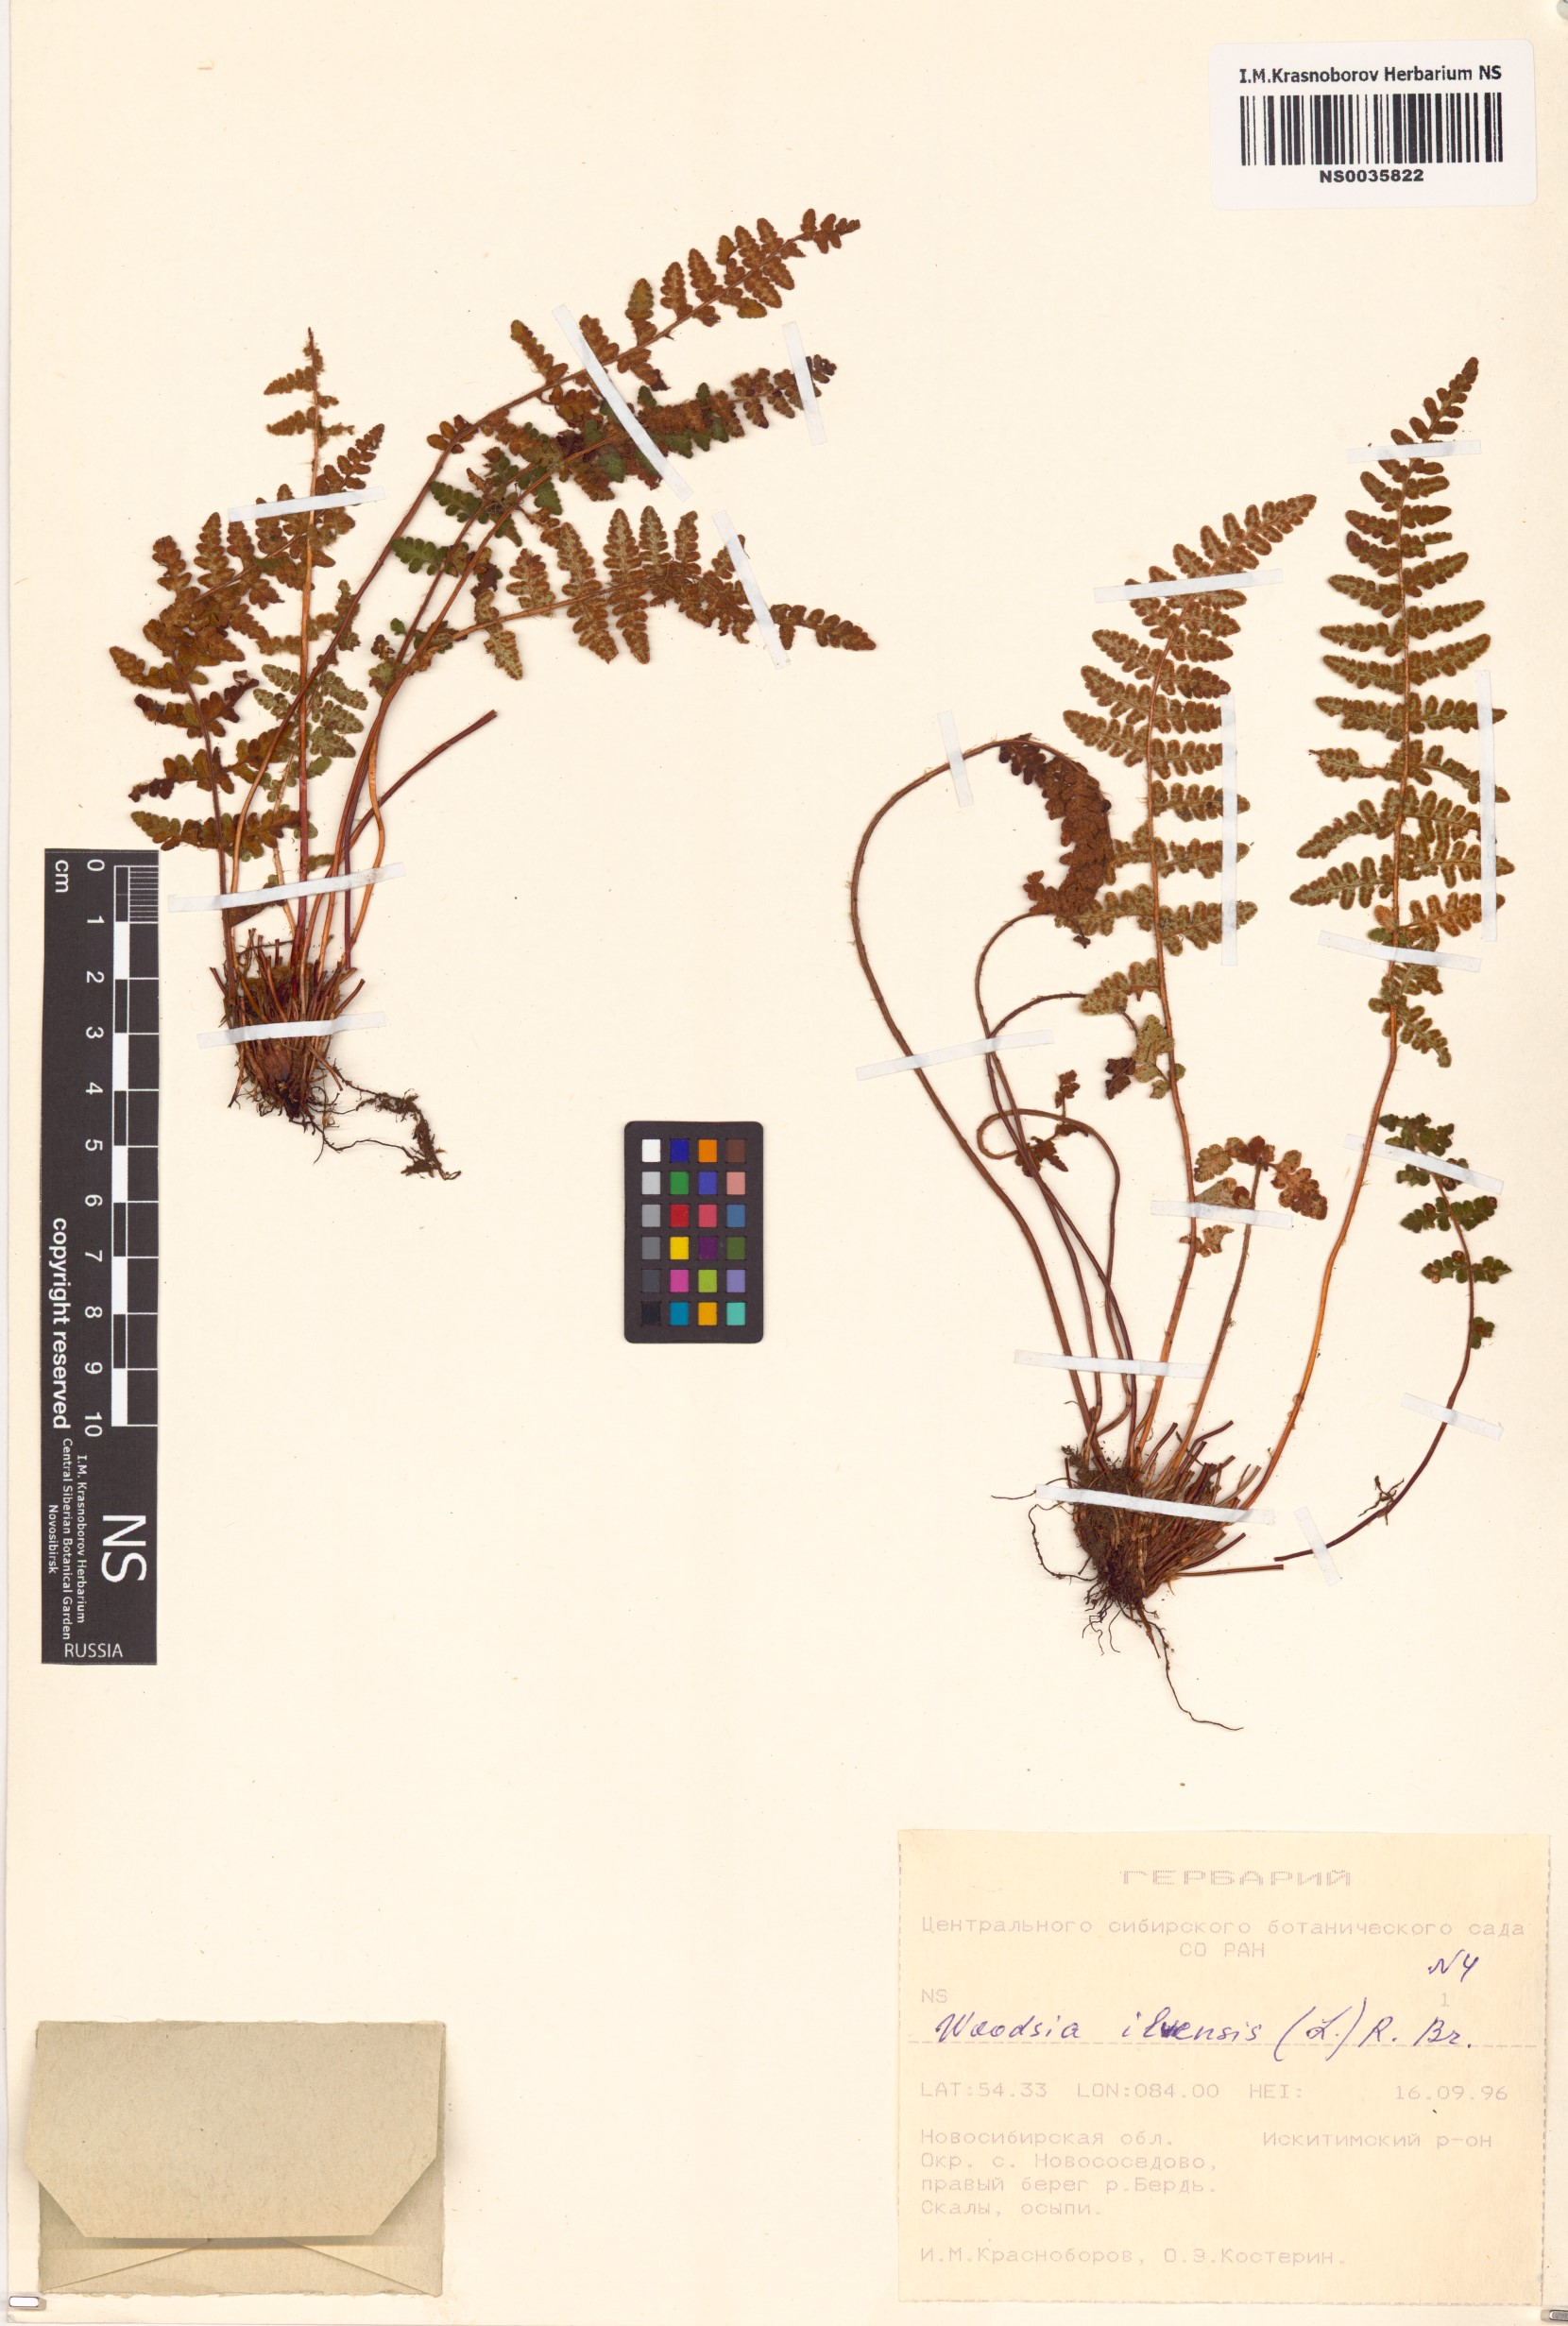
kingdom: Plantae
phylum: Tracheophyta
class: Polypodiopsida
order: Polypodiales
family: Woodsiaceae
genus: Woodsia
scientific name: Woodsia ilvensis
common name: Fragrant woodsia
